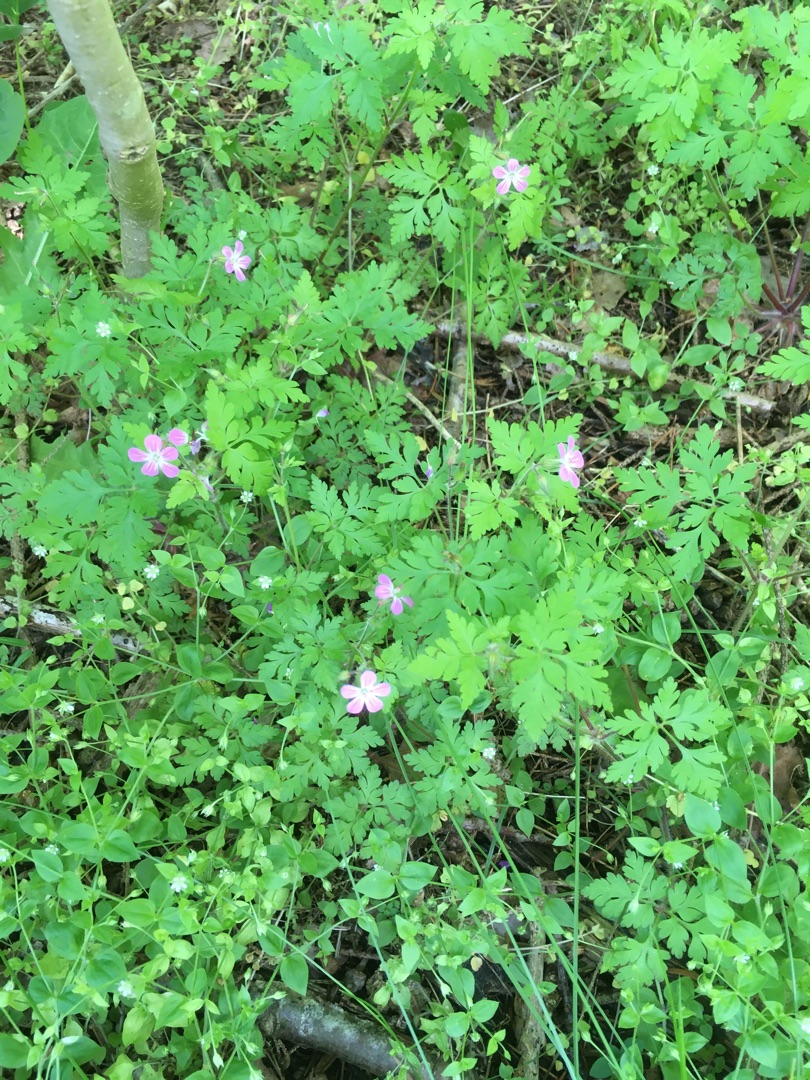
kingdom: Plantae
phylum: Tracheophyta
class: Magnoliopsida
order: Geraniales
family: Geraniaceae
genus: Geranium
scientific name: Geranium robertianum
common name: Stinkende storkenæb
